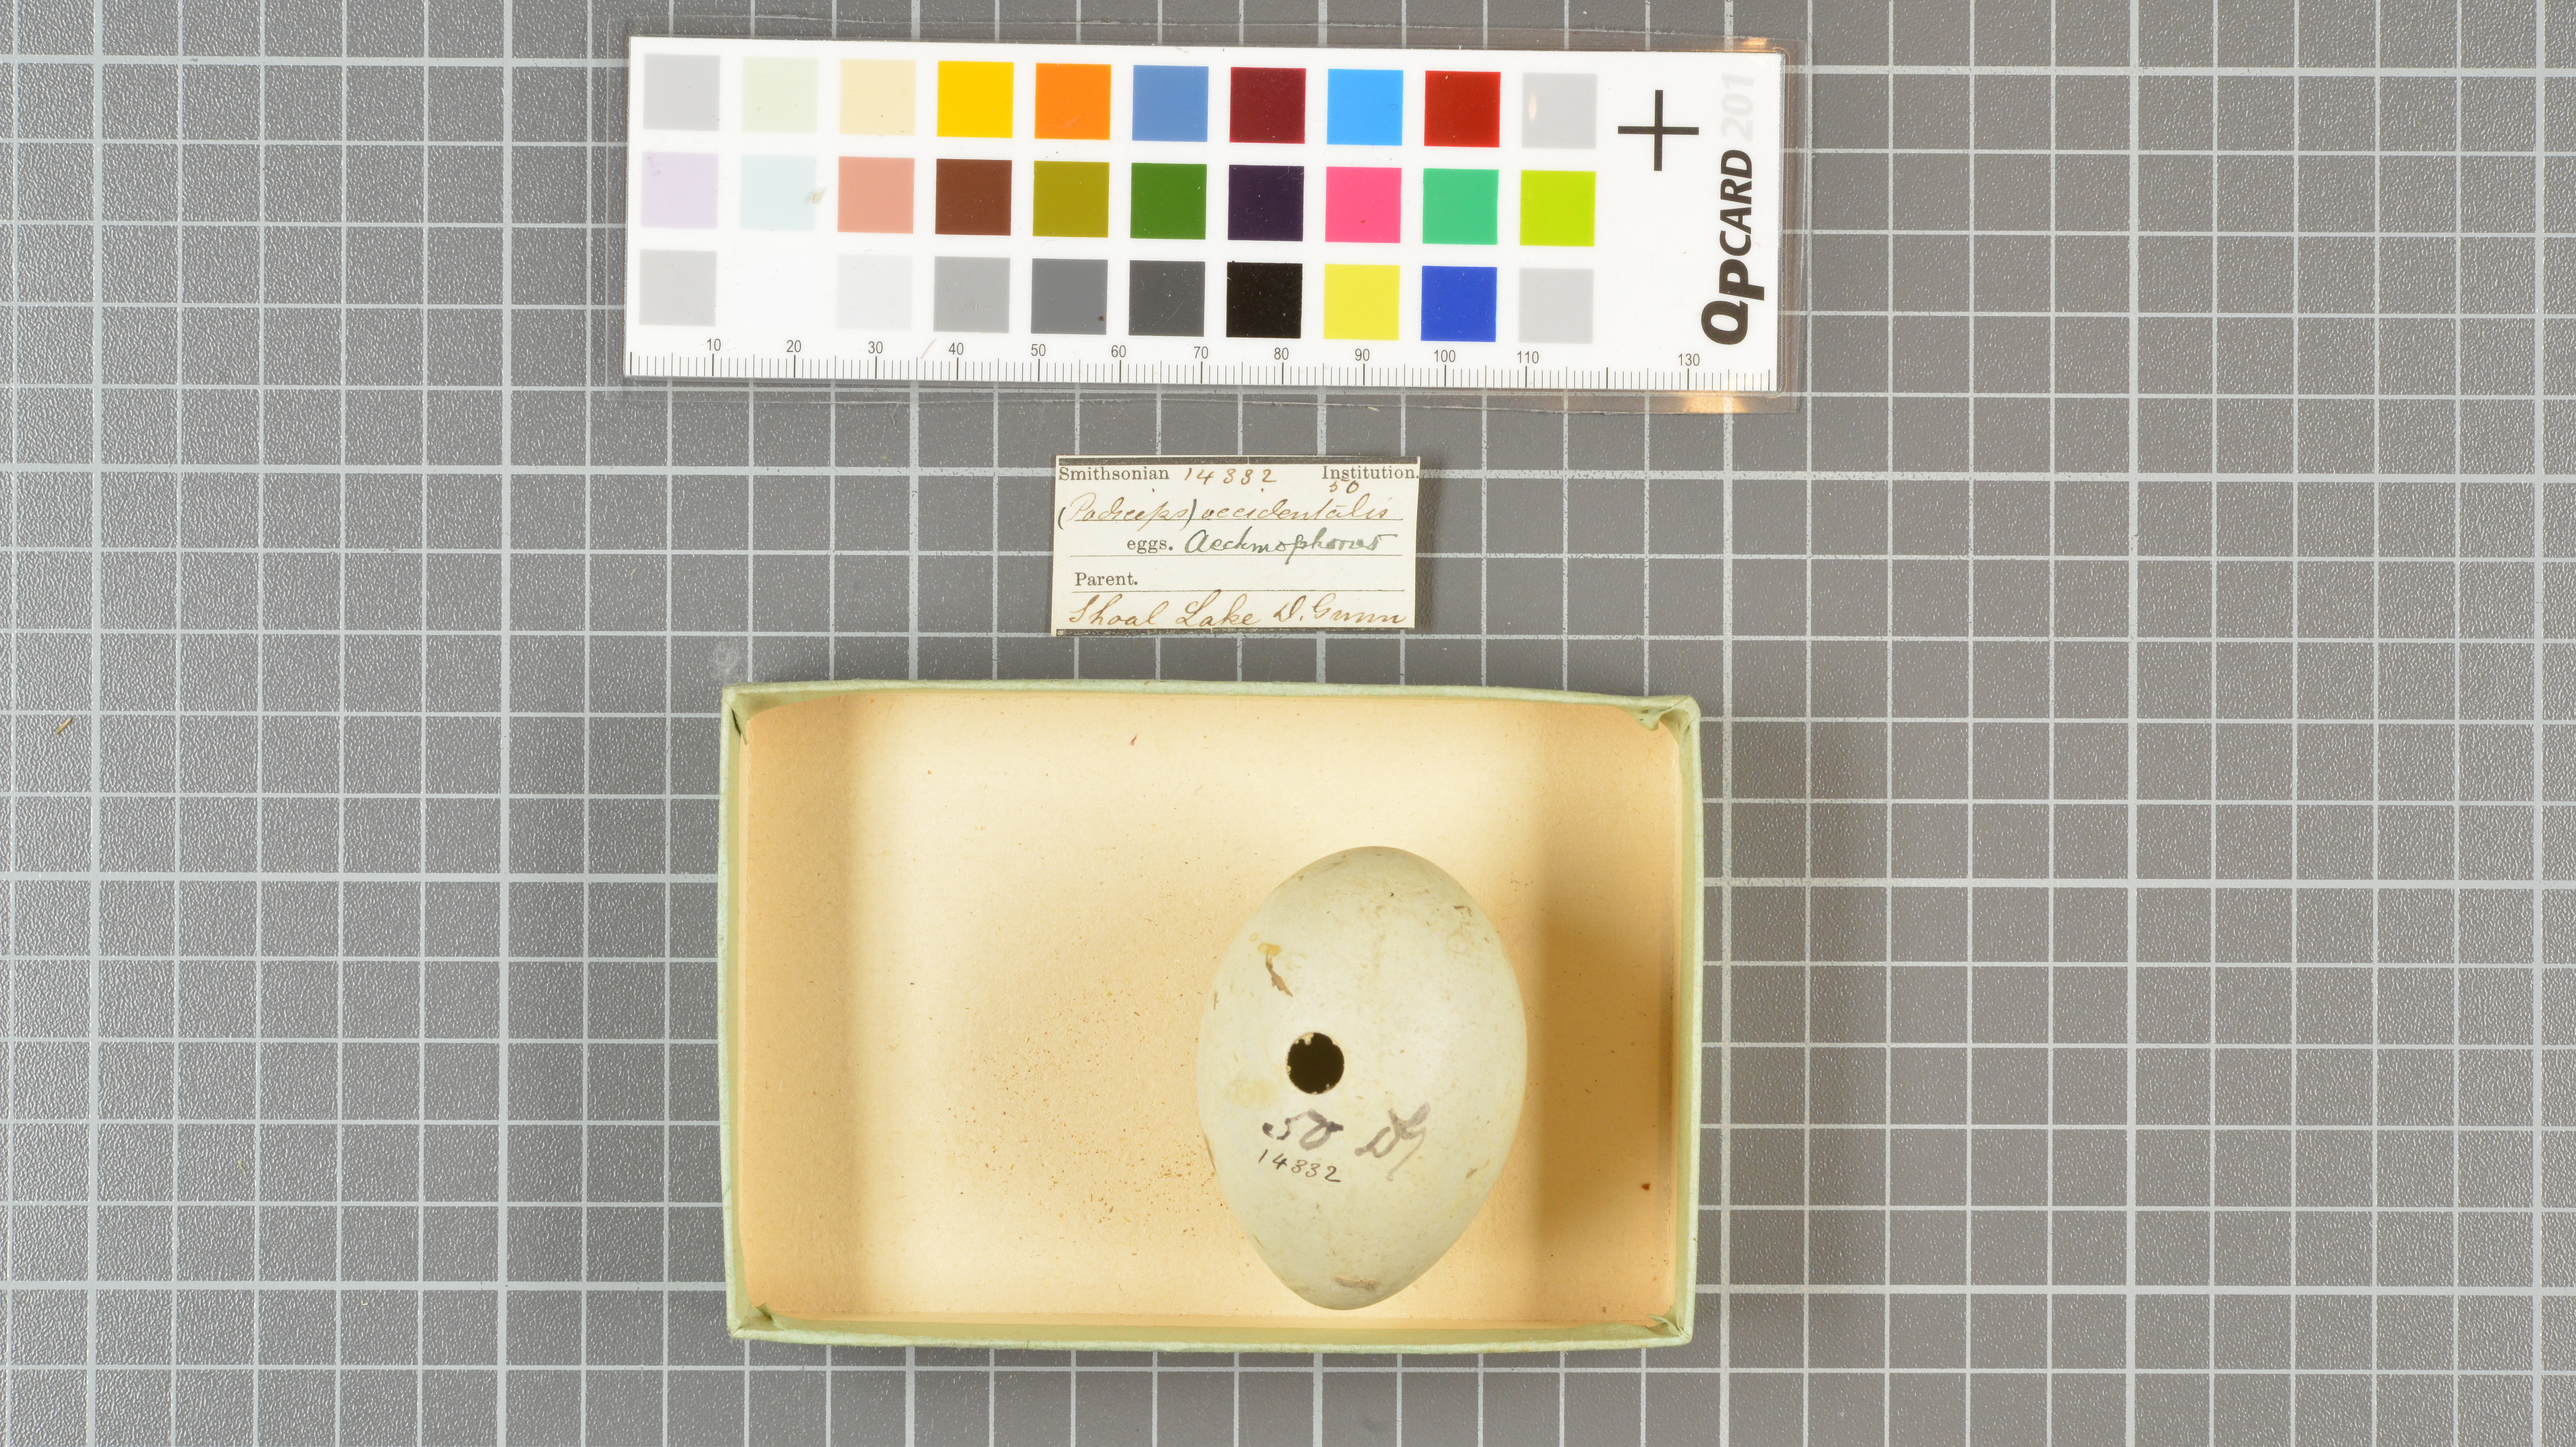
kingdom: Animalia
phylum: Chordata
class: Aves
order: Podicipediformes
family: Podicipedidae
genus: Aechmophorus
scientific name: Aechmophorus occidentalis
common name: Western grebe
